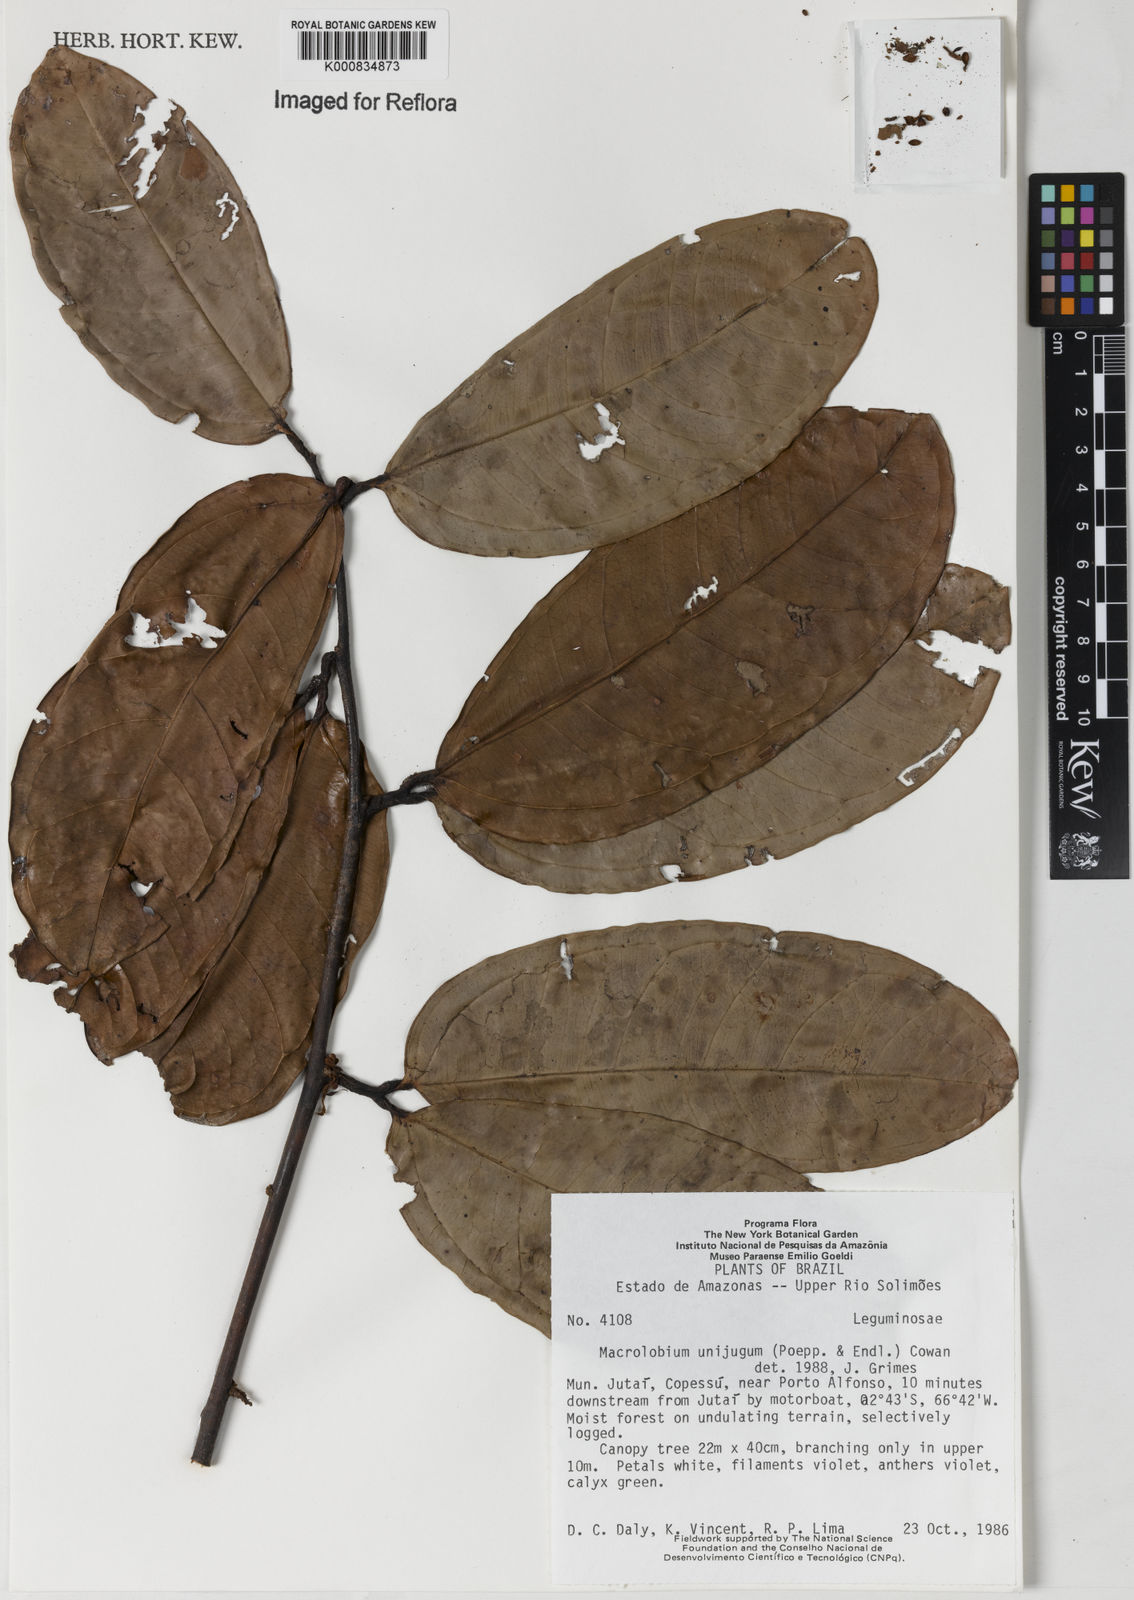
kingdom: Plantae
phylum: Tracheophyta
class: Magnoliopsida
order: Fabales
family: Fabaceae
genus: Macrolobium
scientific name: Macrolobium limbatum
